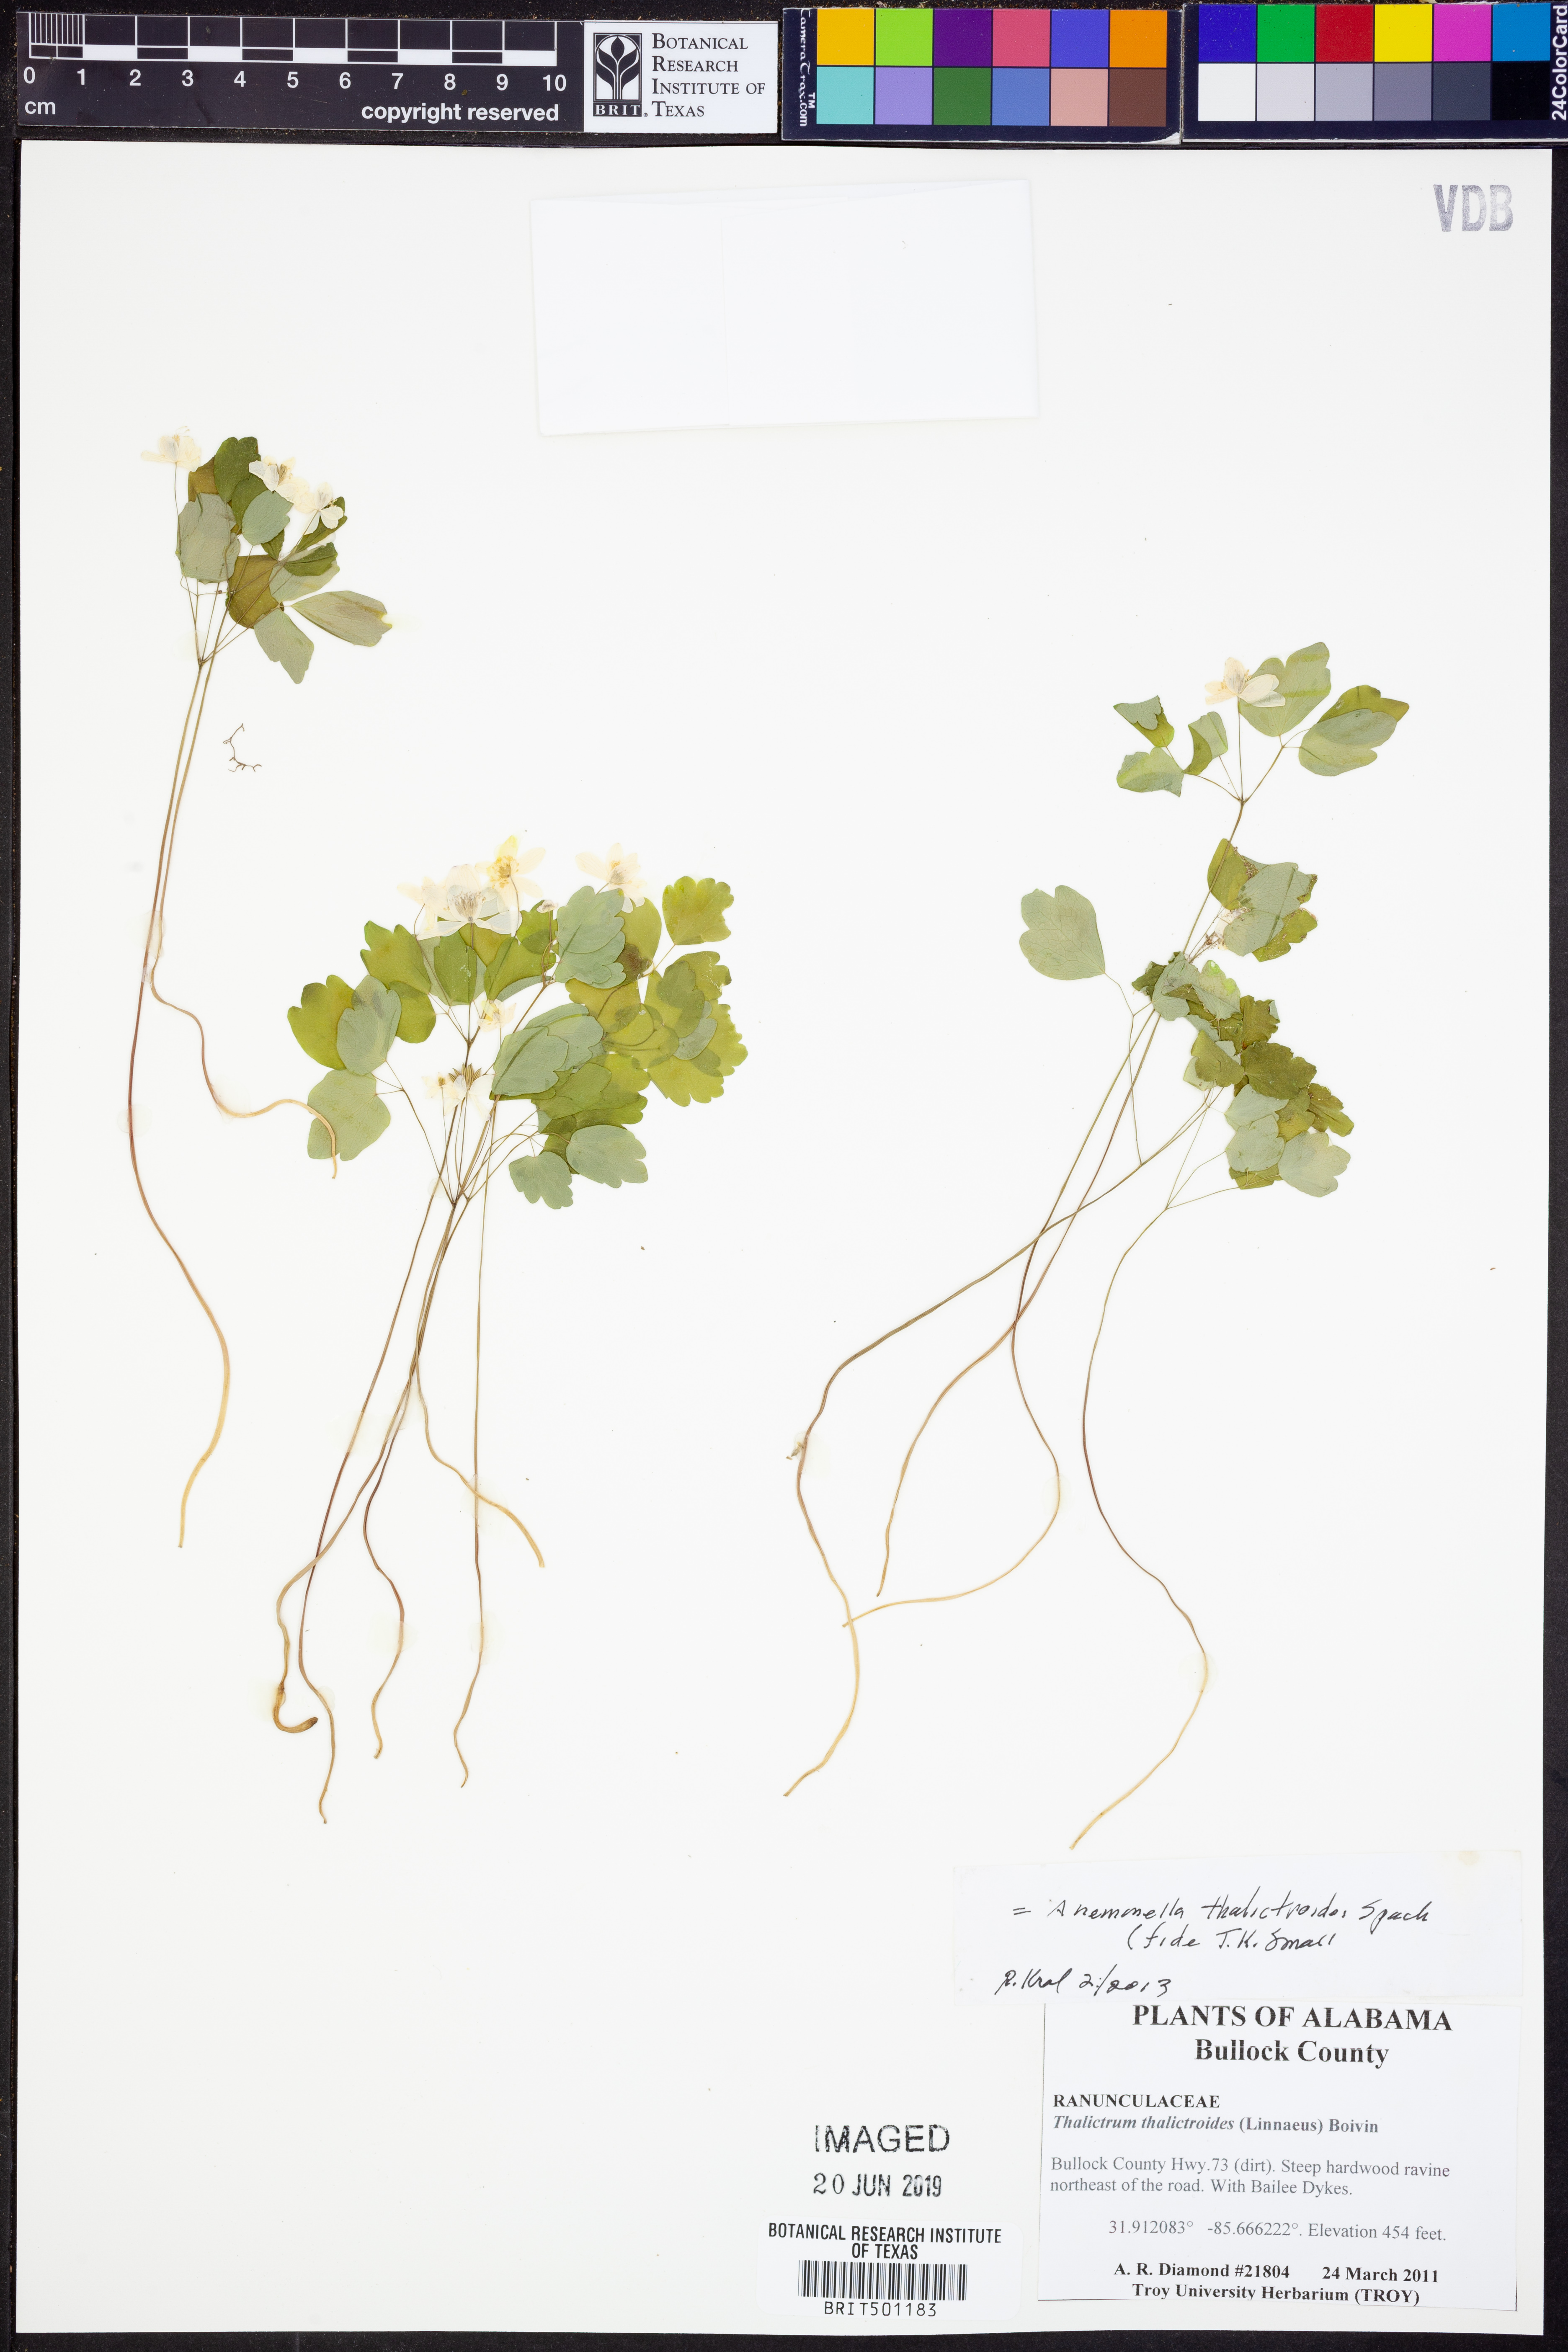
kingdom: Plantae
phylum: Tracheophyta
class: Magnoliopsida
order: Ranunculales
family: Ranunculaceae
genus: Thalictrum
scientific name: Thalictrum thalictroides
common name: Rue-anemone
